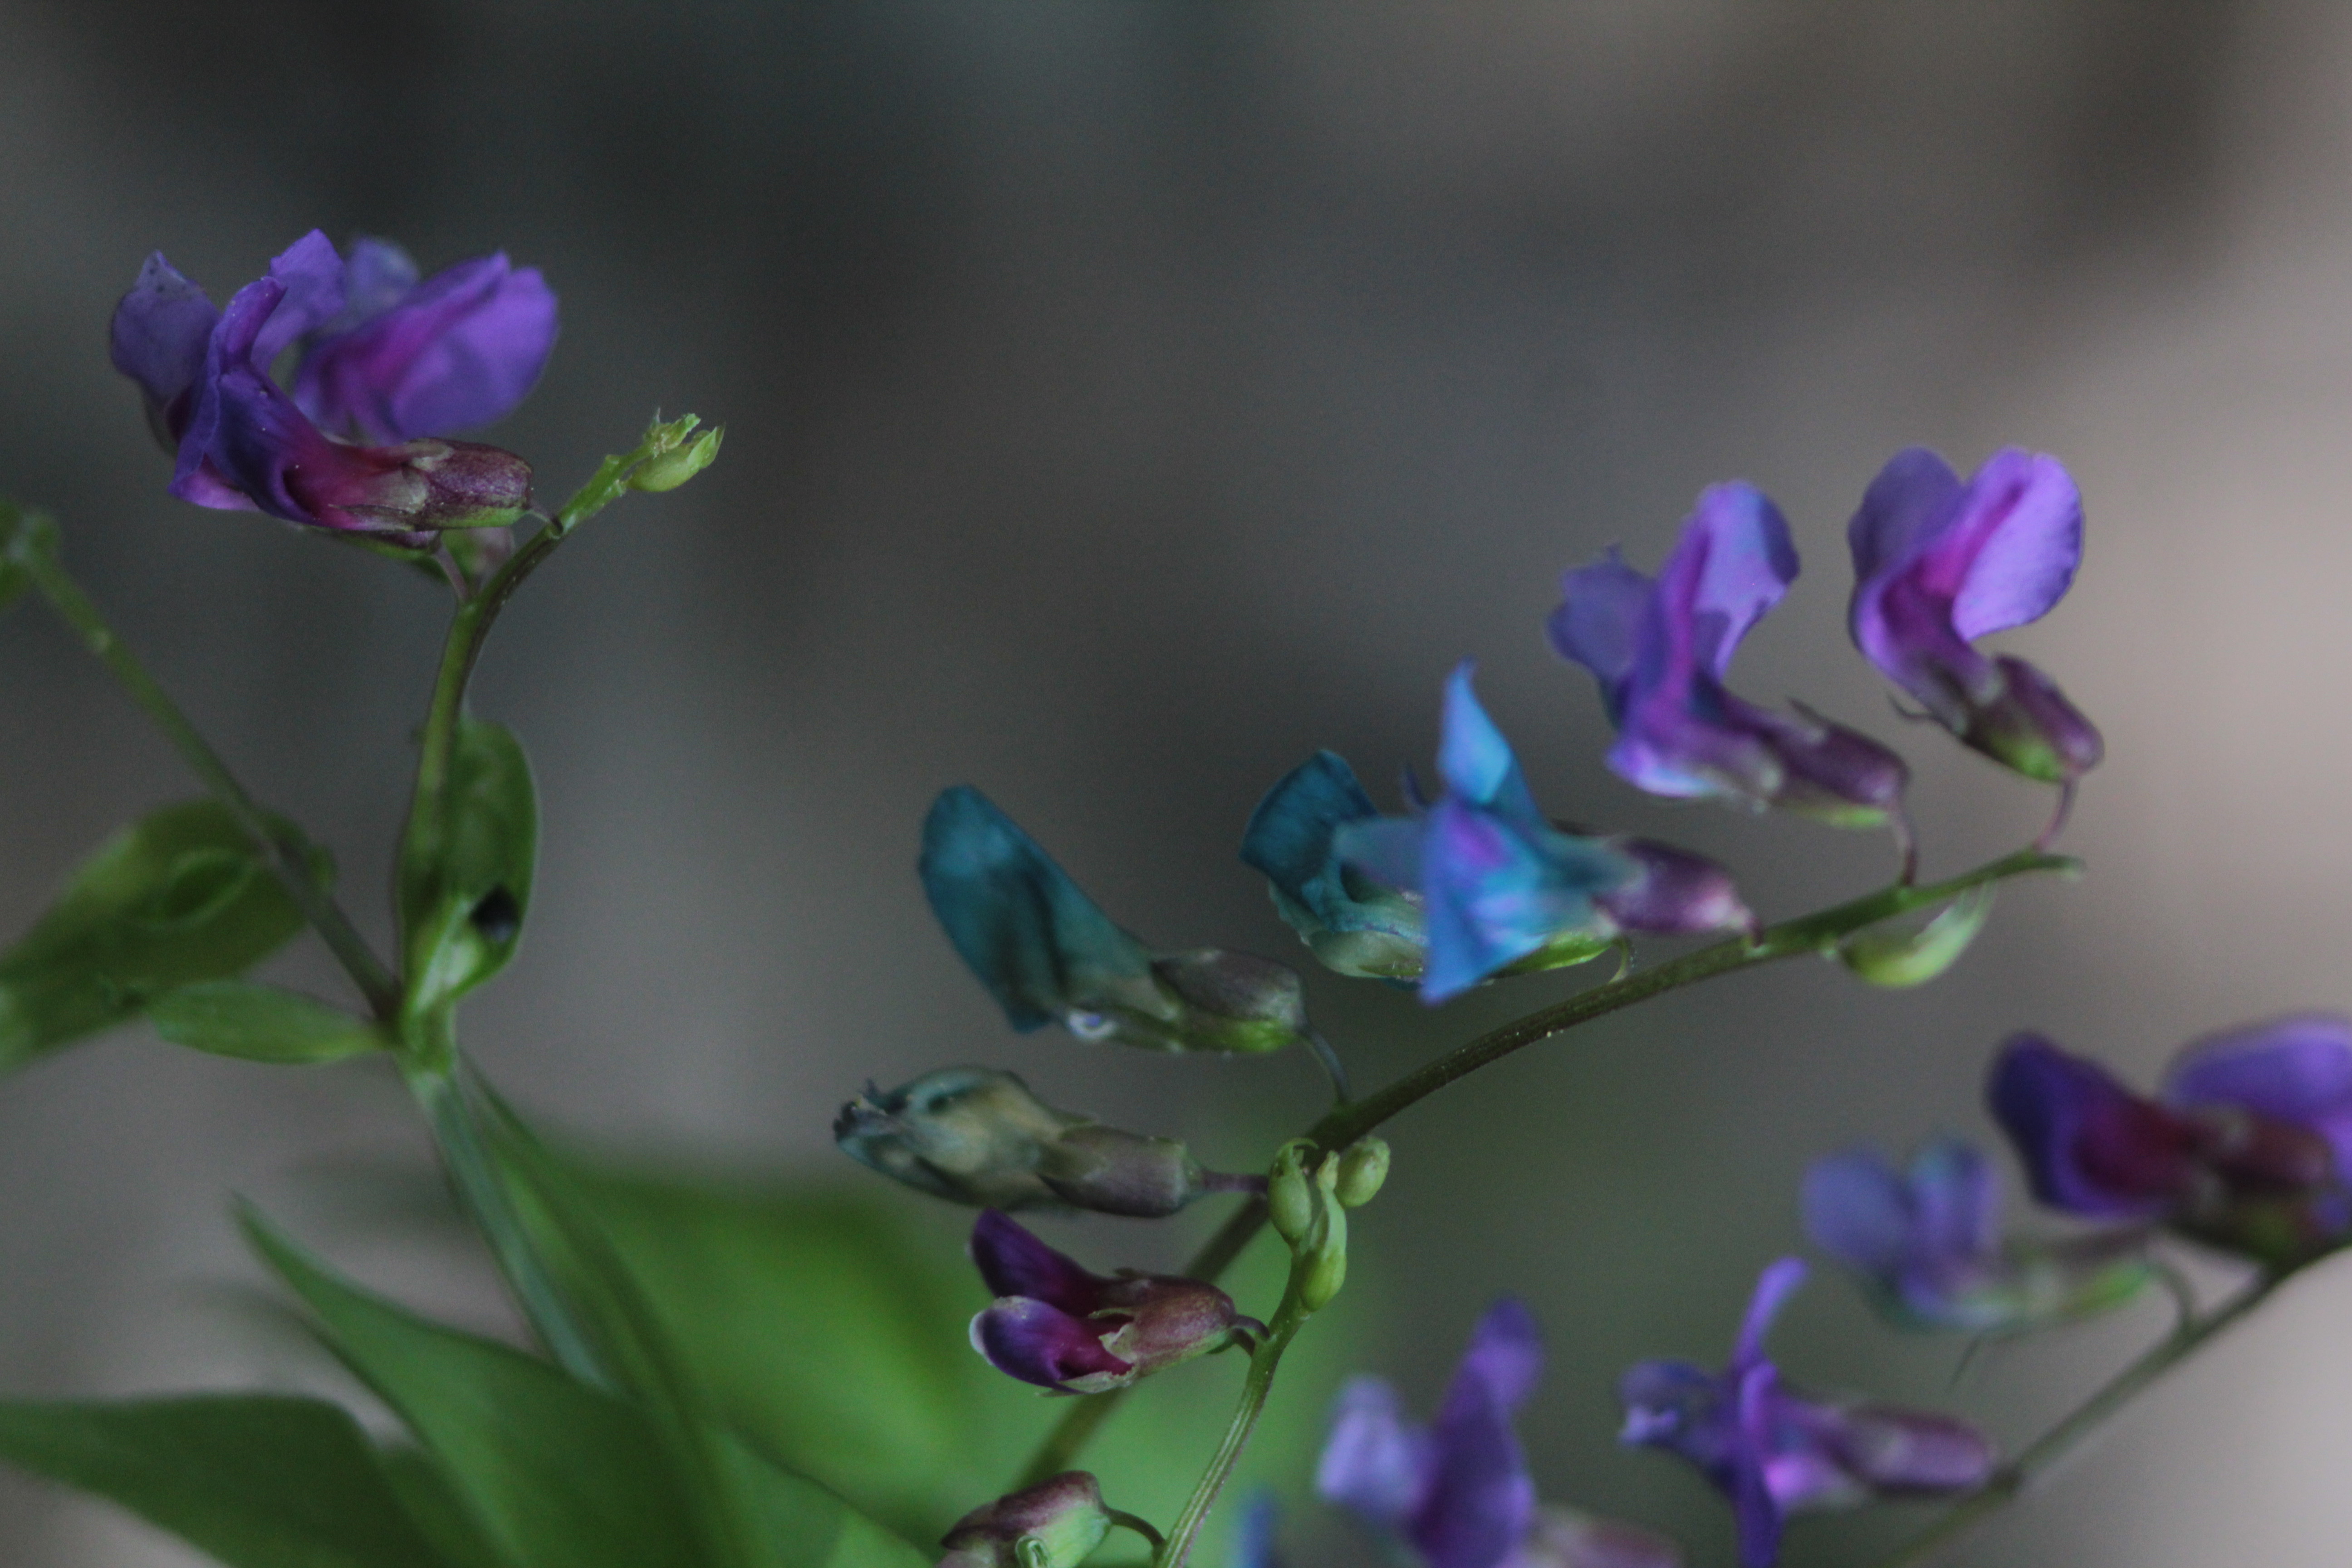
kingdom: Plantae
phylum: Tracheophyta
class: Magnoliopsida
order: Fabales
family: Fabaceae
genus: Lathyrus
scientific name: Lathyrus vernus
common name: Spring pea
